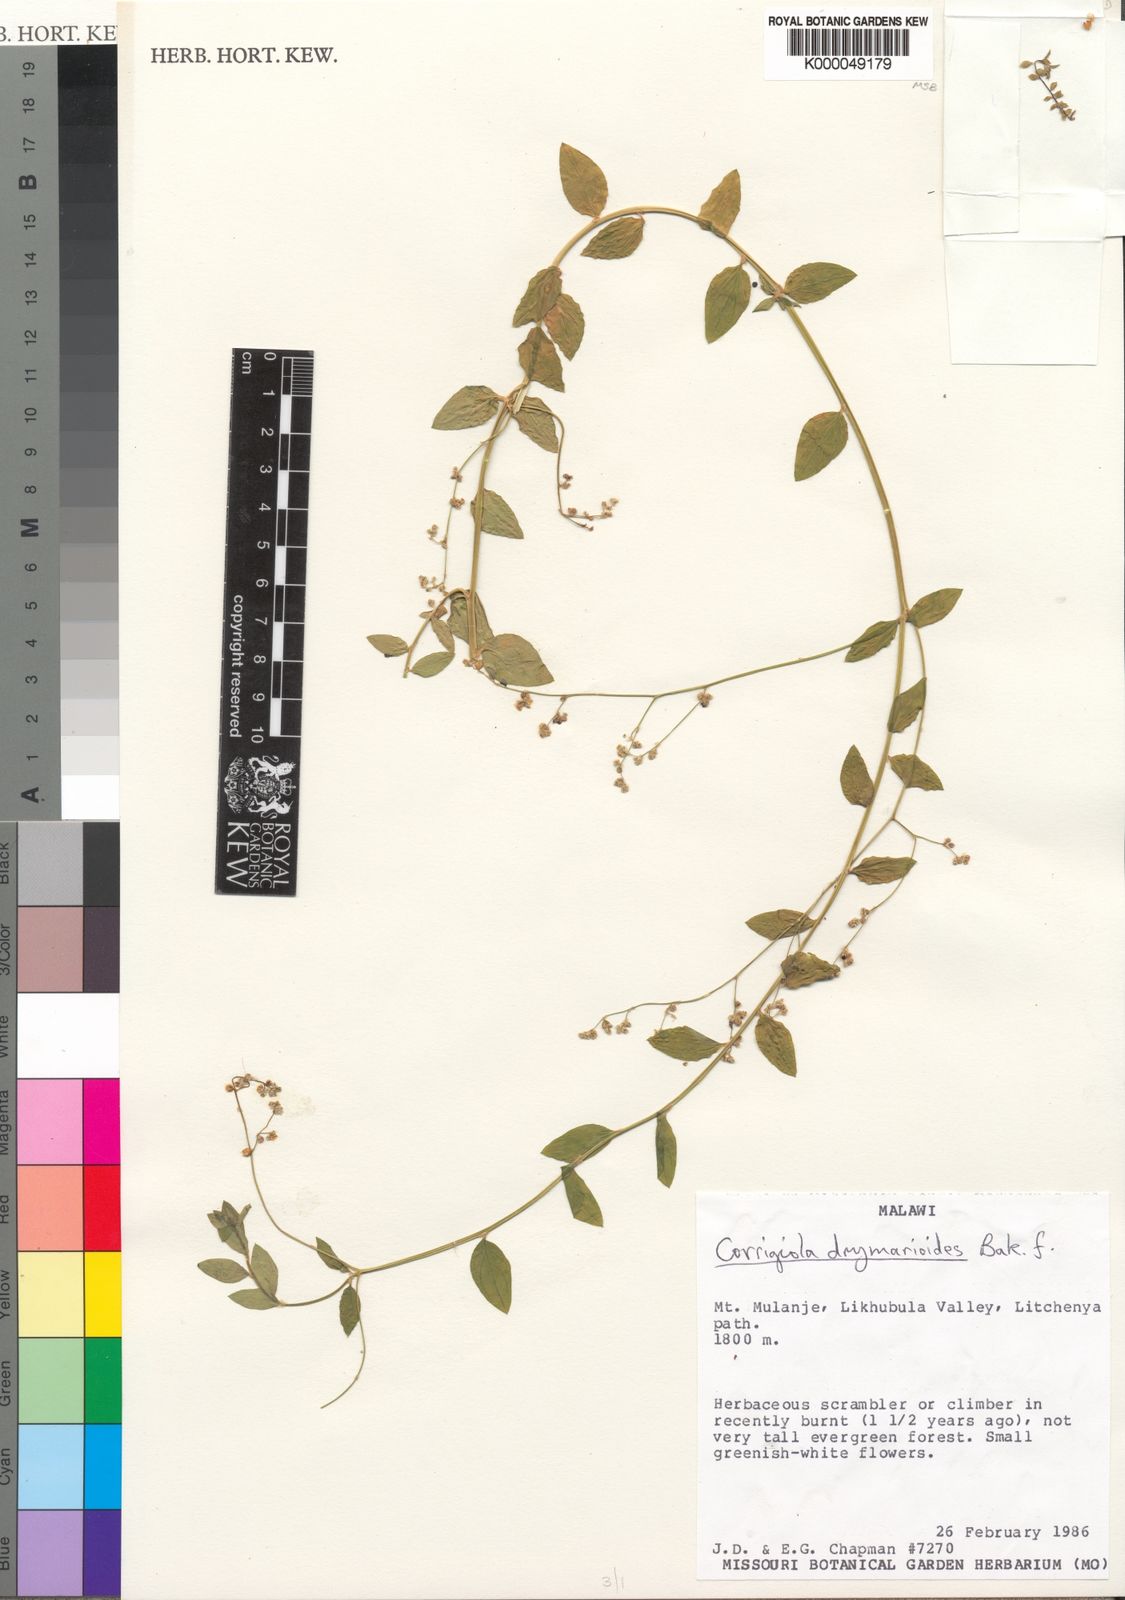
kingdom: Plantae
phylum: Tracheophyta
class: Magnoliopsida
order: Caryophyllales
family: Caryophyllaceae
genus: Corrigiola
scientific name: Corrigiola drymarioides
